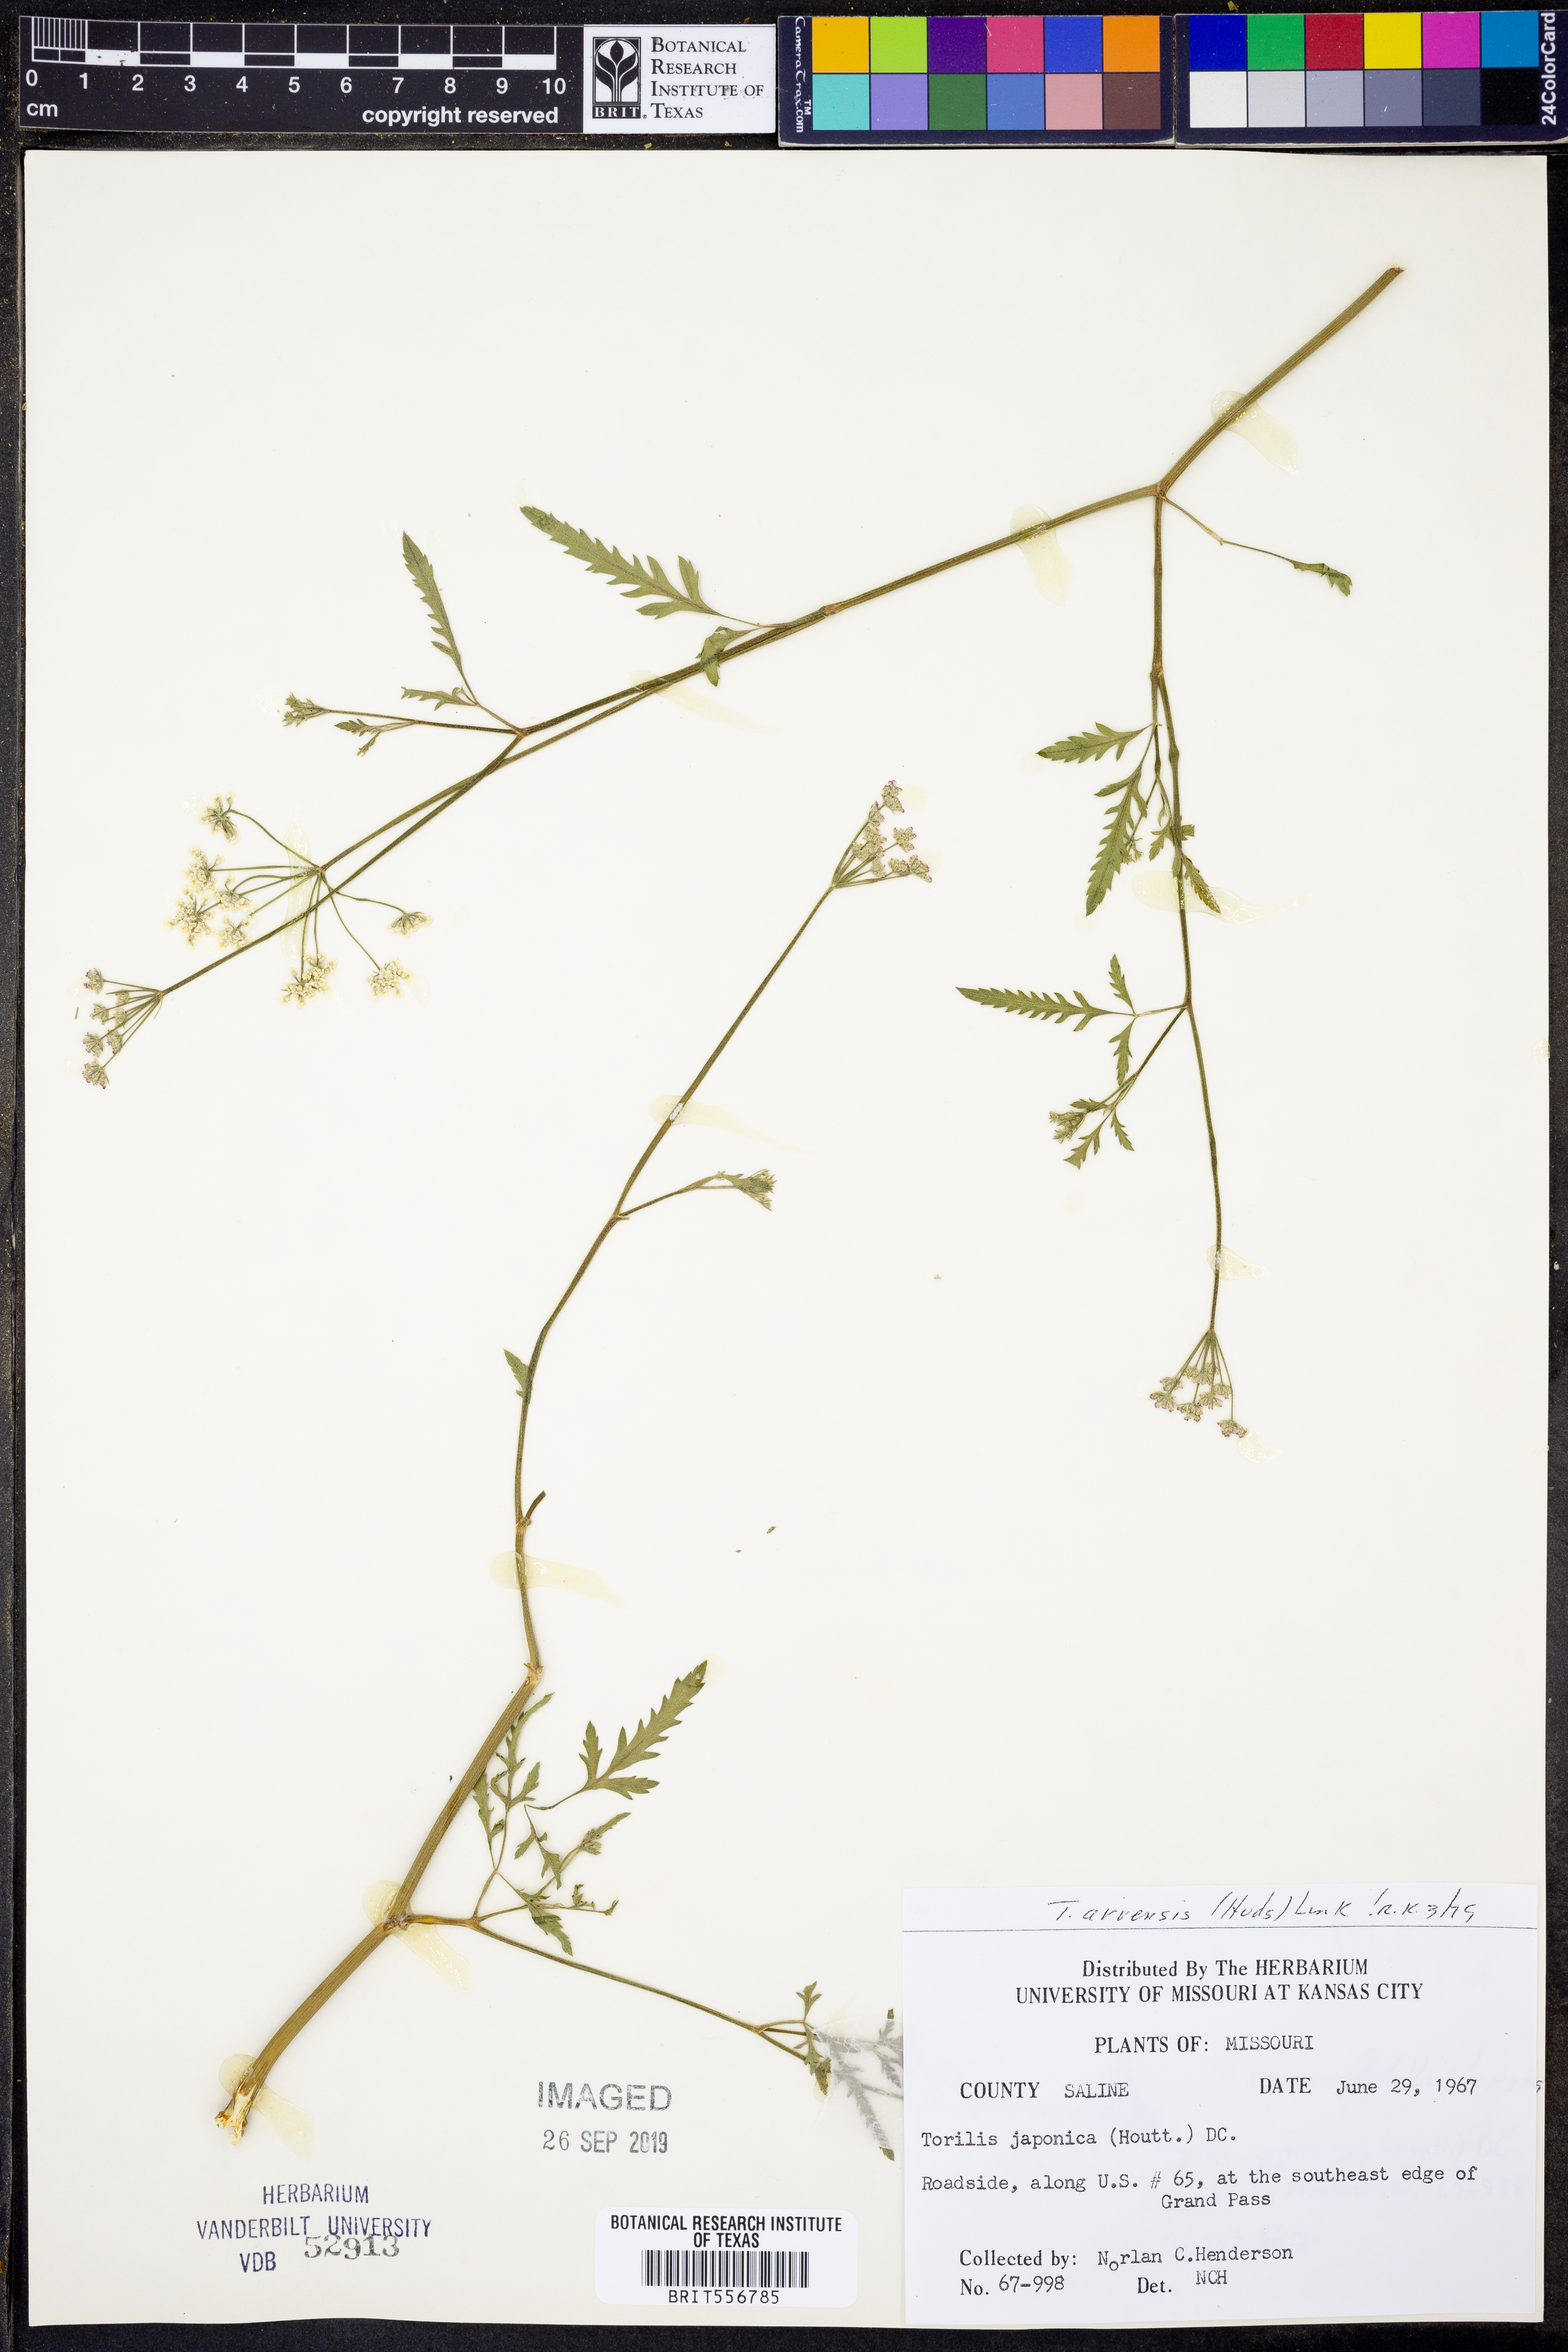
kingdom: Plantae
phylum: Tracheophyta
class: Magnoliopsida
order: Apiales
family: Apiaceae
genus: Torilis
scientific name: Torilis arvensis
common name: Spreading hedge-parsley
